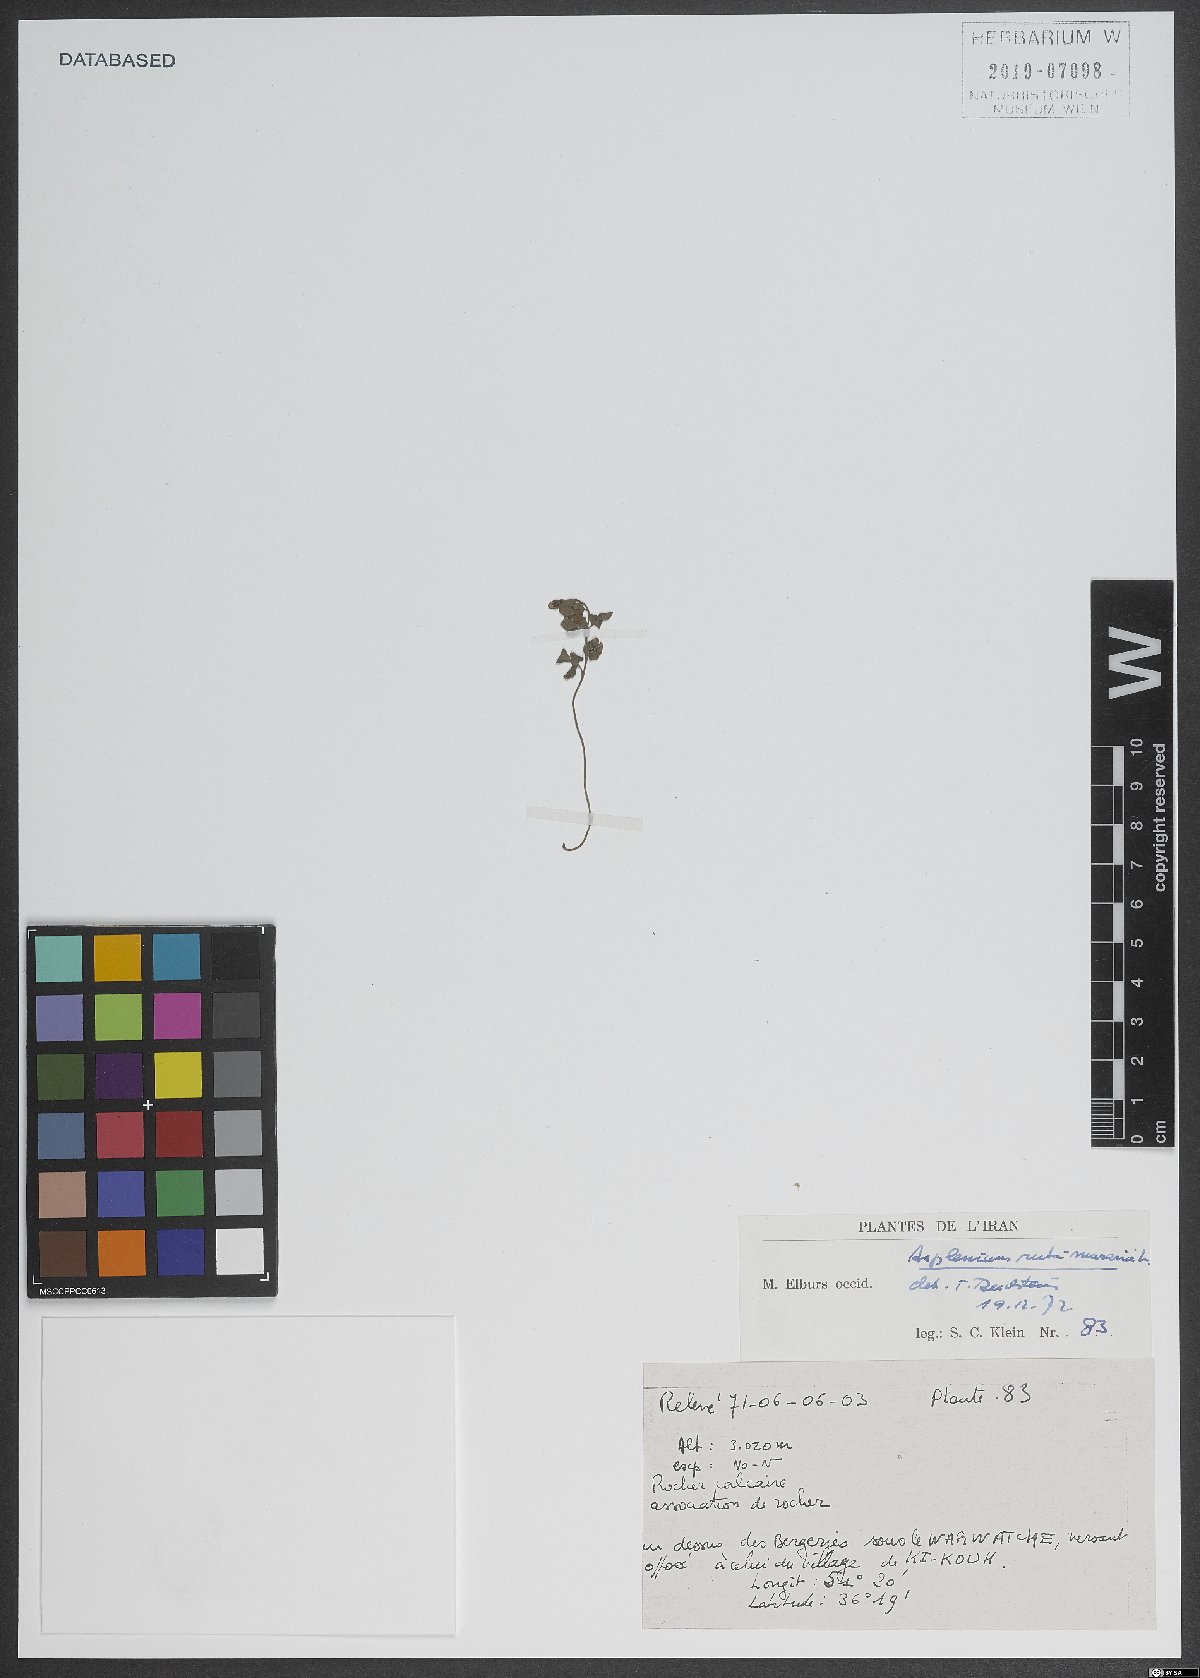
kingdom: Plantae
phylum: Tracheophyta
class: Polypodiopsida
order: Polypodiales
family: Aspleniaceae
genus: Asplenium
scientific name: Asplenium ruta-muraria
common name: Wall-rue
